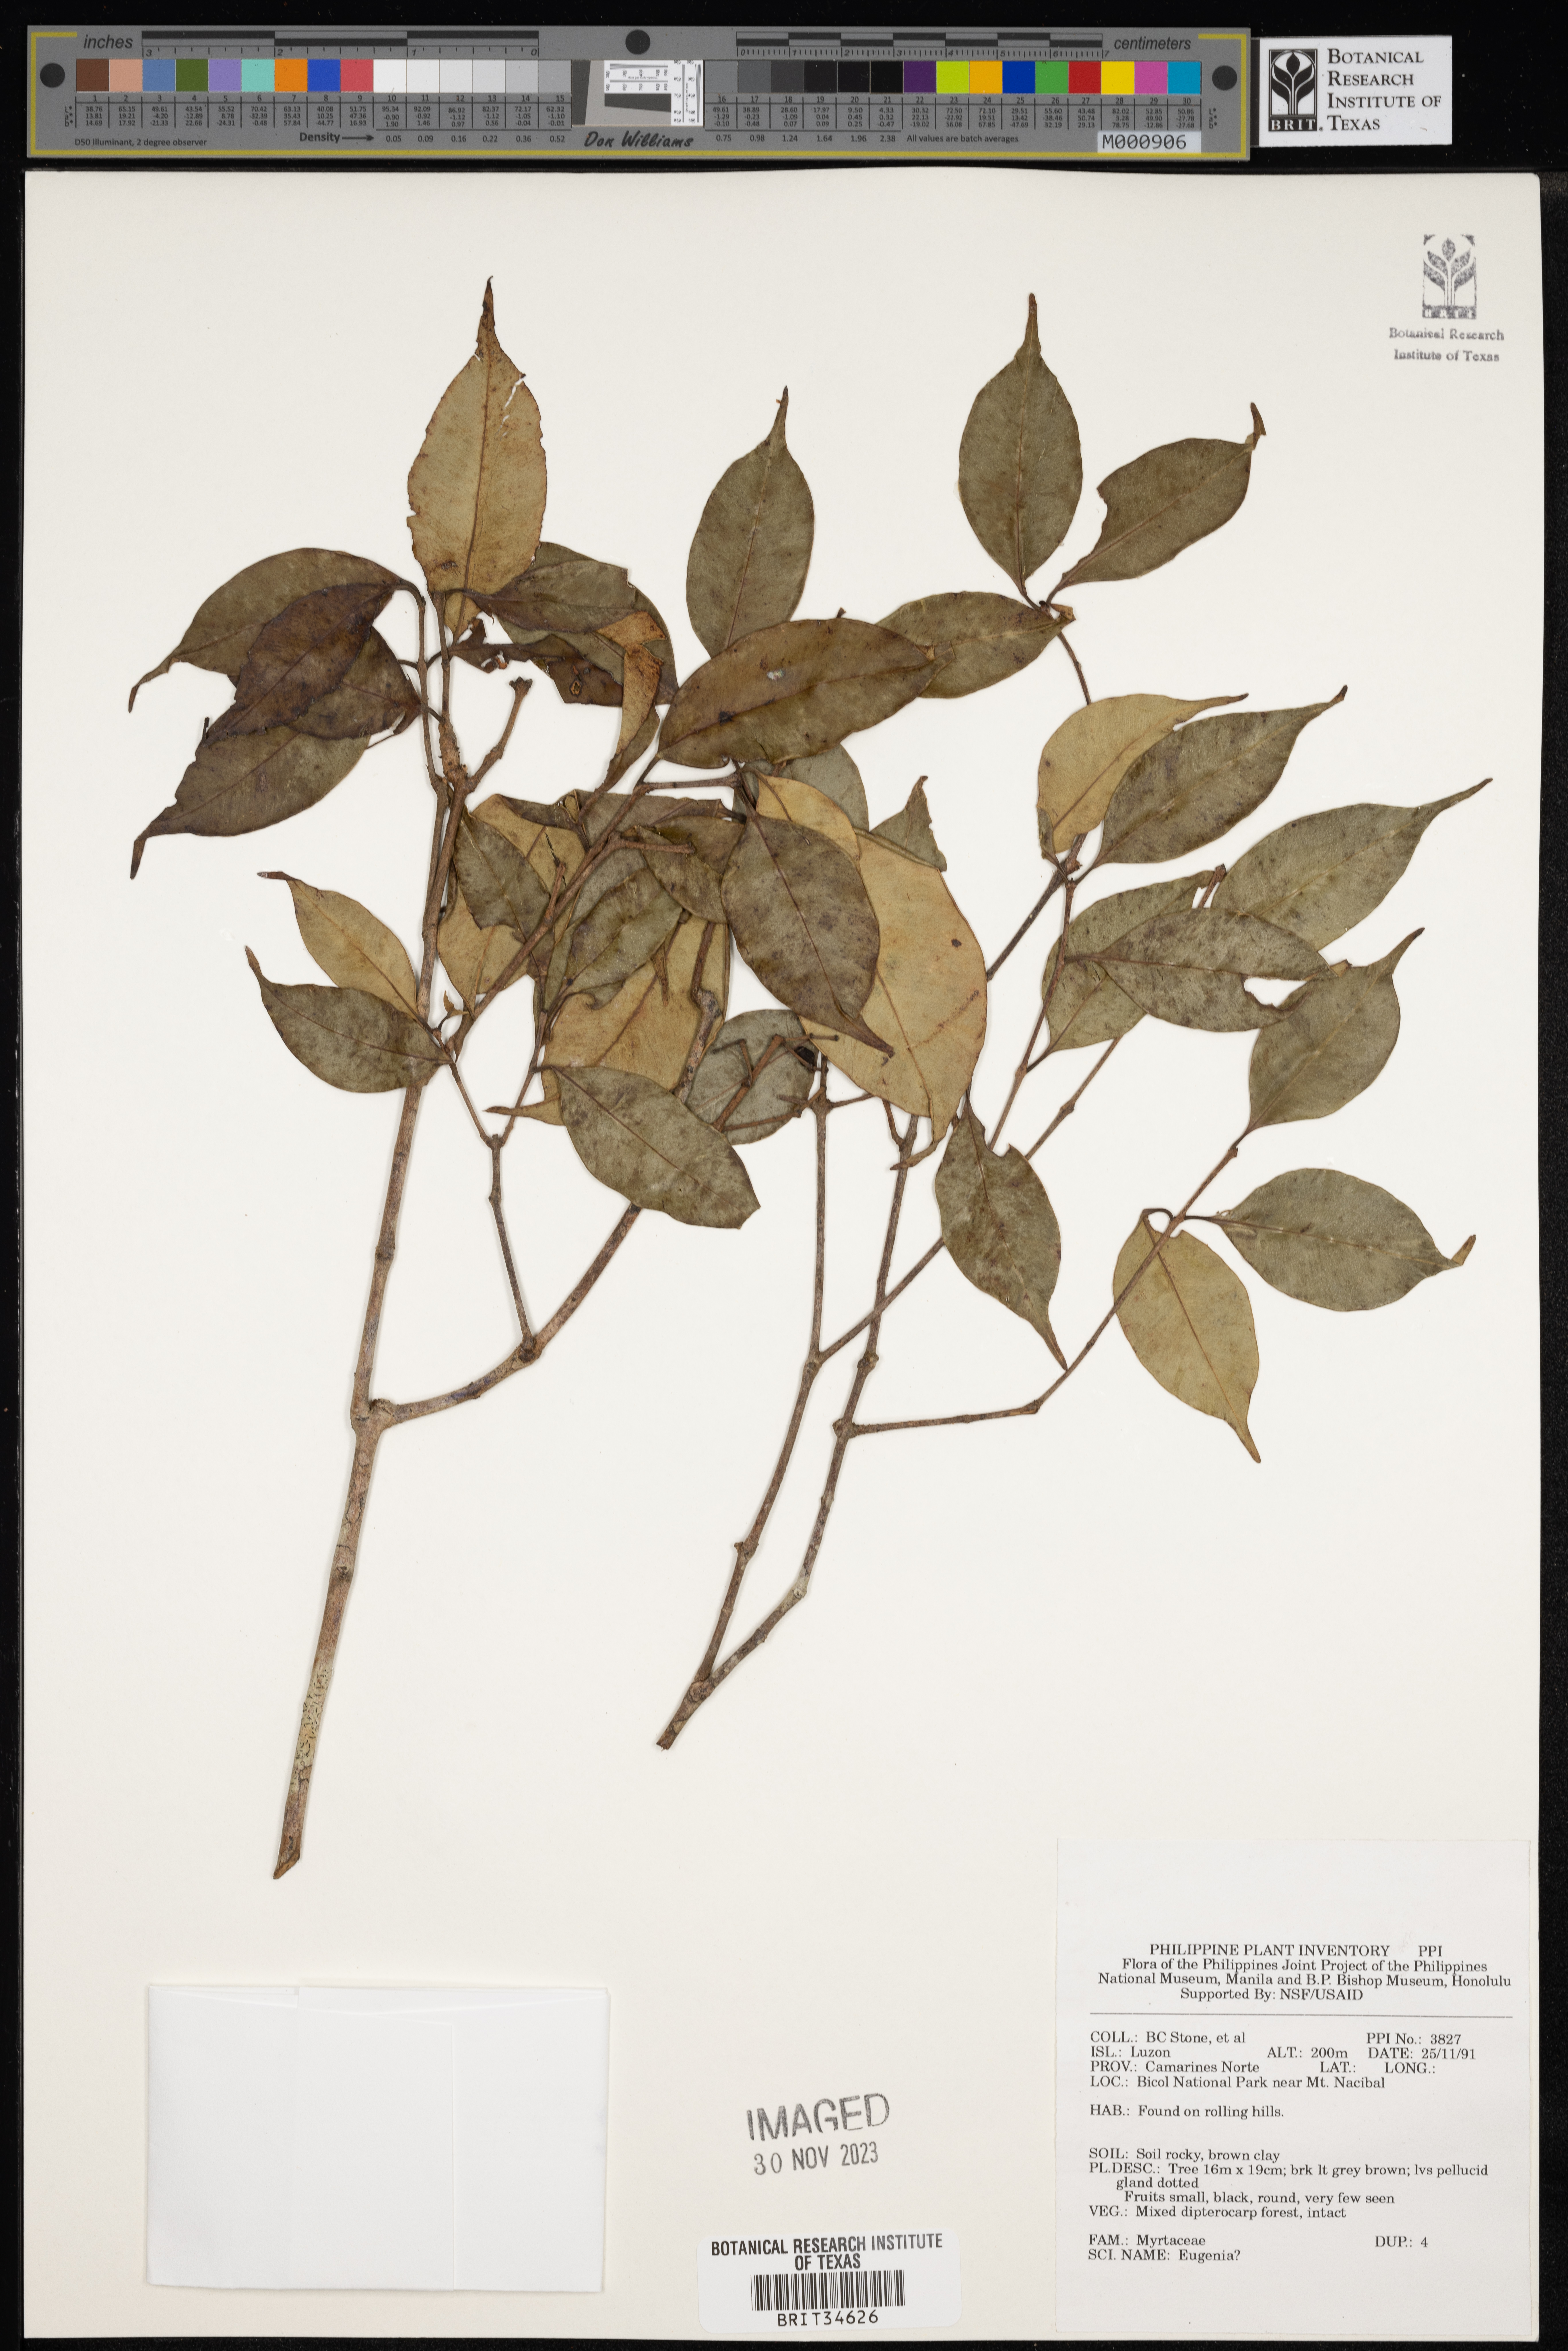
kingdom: Plantae
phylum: Tracheophyta
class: Magnoliopsida
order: Myrtales
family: Myrtaceae
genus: Eugenia
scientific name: Eugenia
